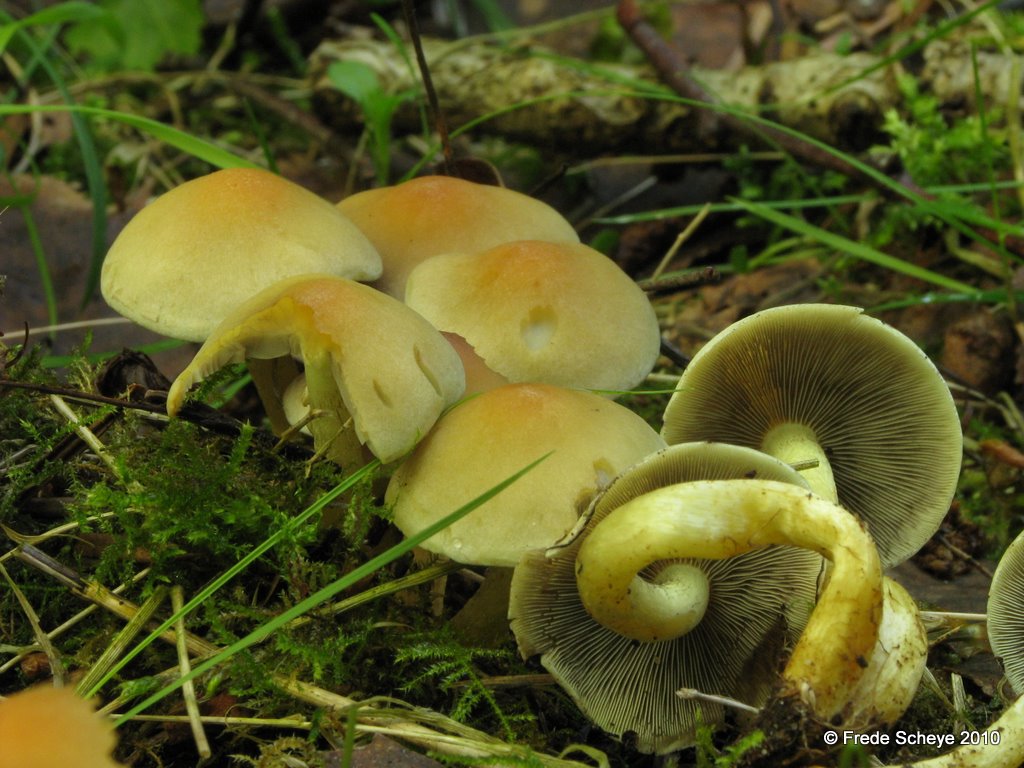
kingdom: Fungi
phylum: Basidiomycota
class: Agaricomycetes
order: Agaricales
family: Strophariaceae
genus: Hypholoma
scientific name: Hypholoma fasciculare
